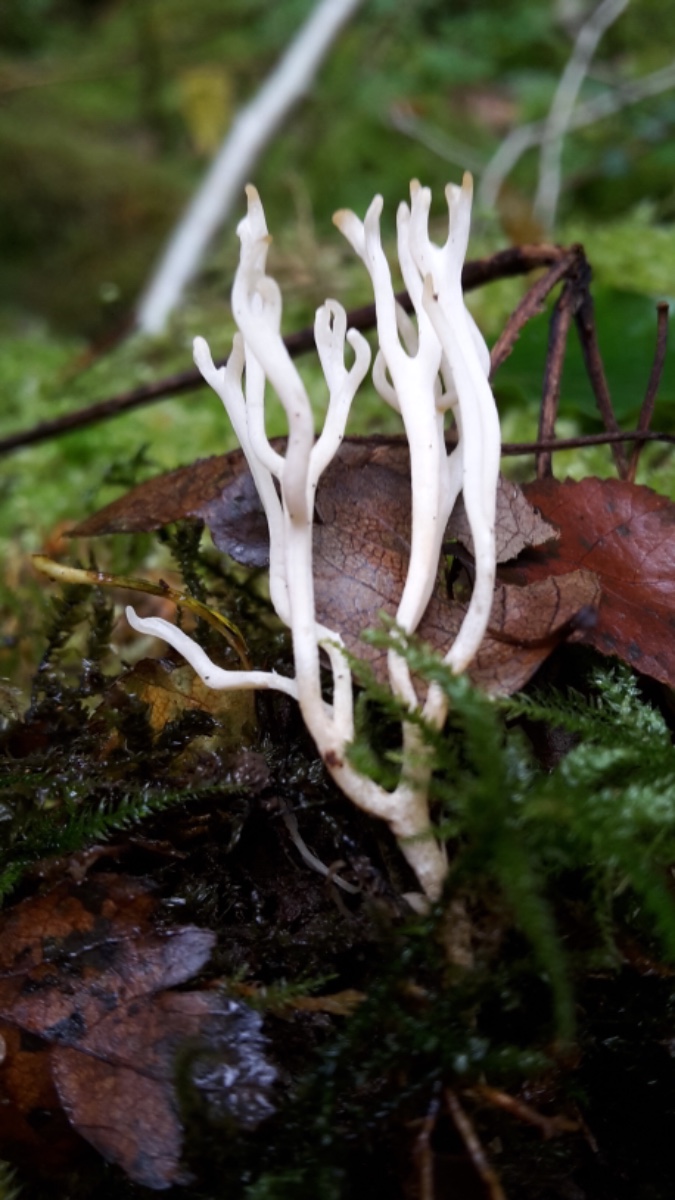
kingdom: Fungi
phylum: Basidiomycota
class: Agaricomycetes
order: Agaricales
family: Clavariaceae
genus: Ramariopsis
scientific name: Ramariopsis kunzei
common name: mangegrenet køllesvamp
